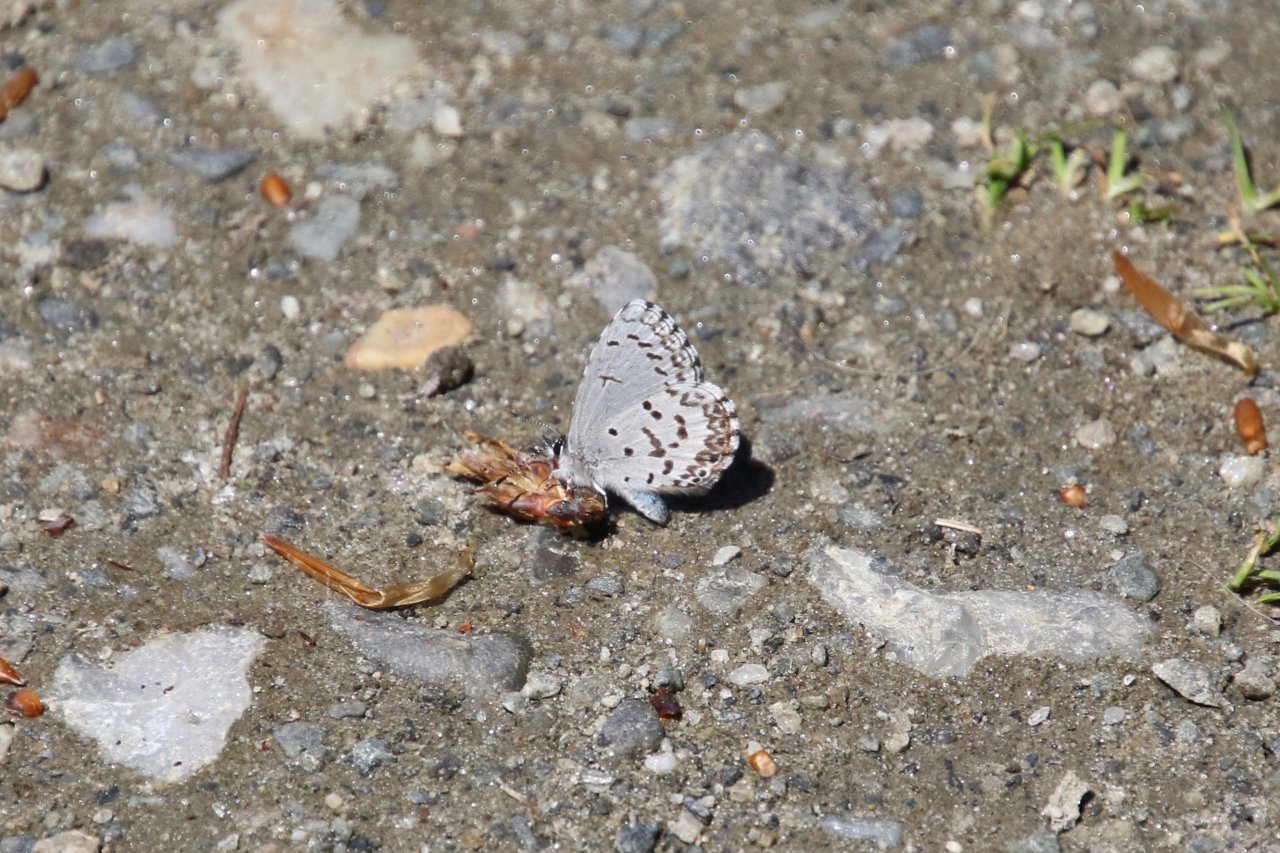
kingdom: Animalia
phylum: Arthropoda
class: Insecta
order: Lepidoptera
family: Lycaenidae
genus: Celastrina
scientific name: Celastrina lucia
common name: Northern Spring Azure
